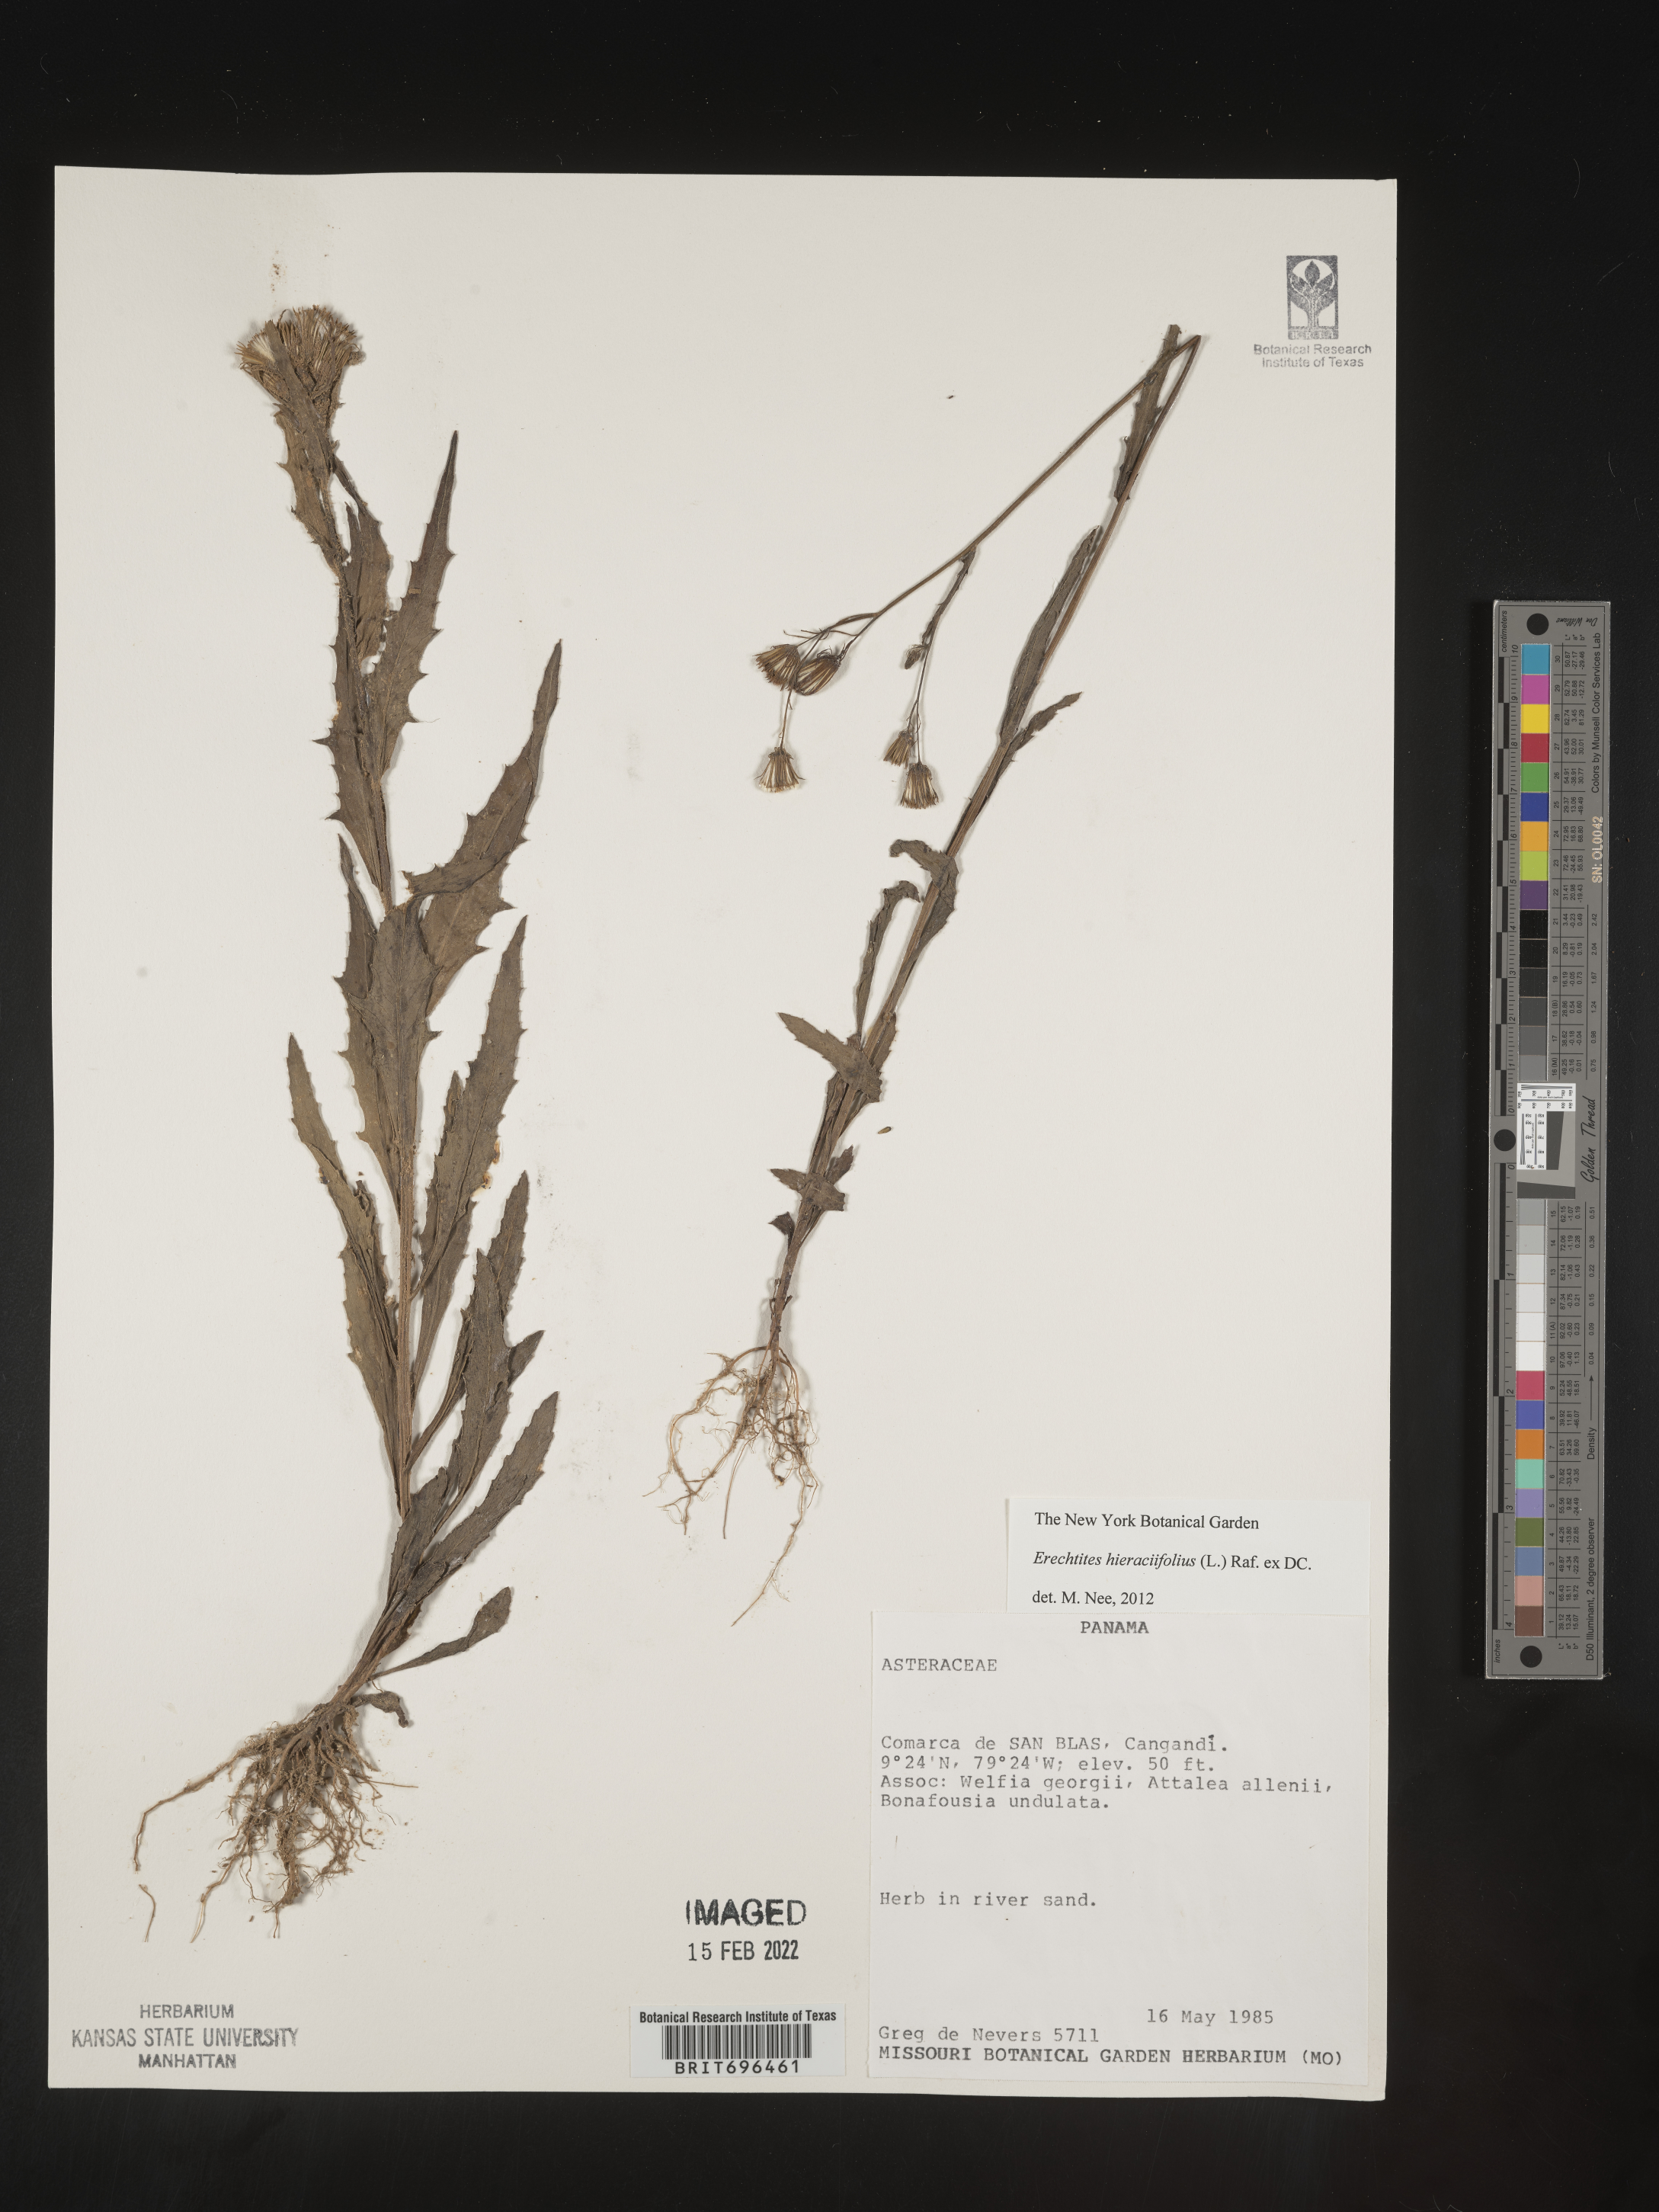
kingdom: Plantae
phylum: Tracheophyta
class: Magnoliopsida
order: Asterales
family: Asteraceae
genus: Erechtites
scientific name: Erechtites
